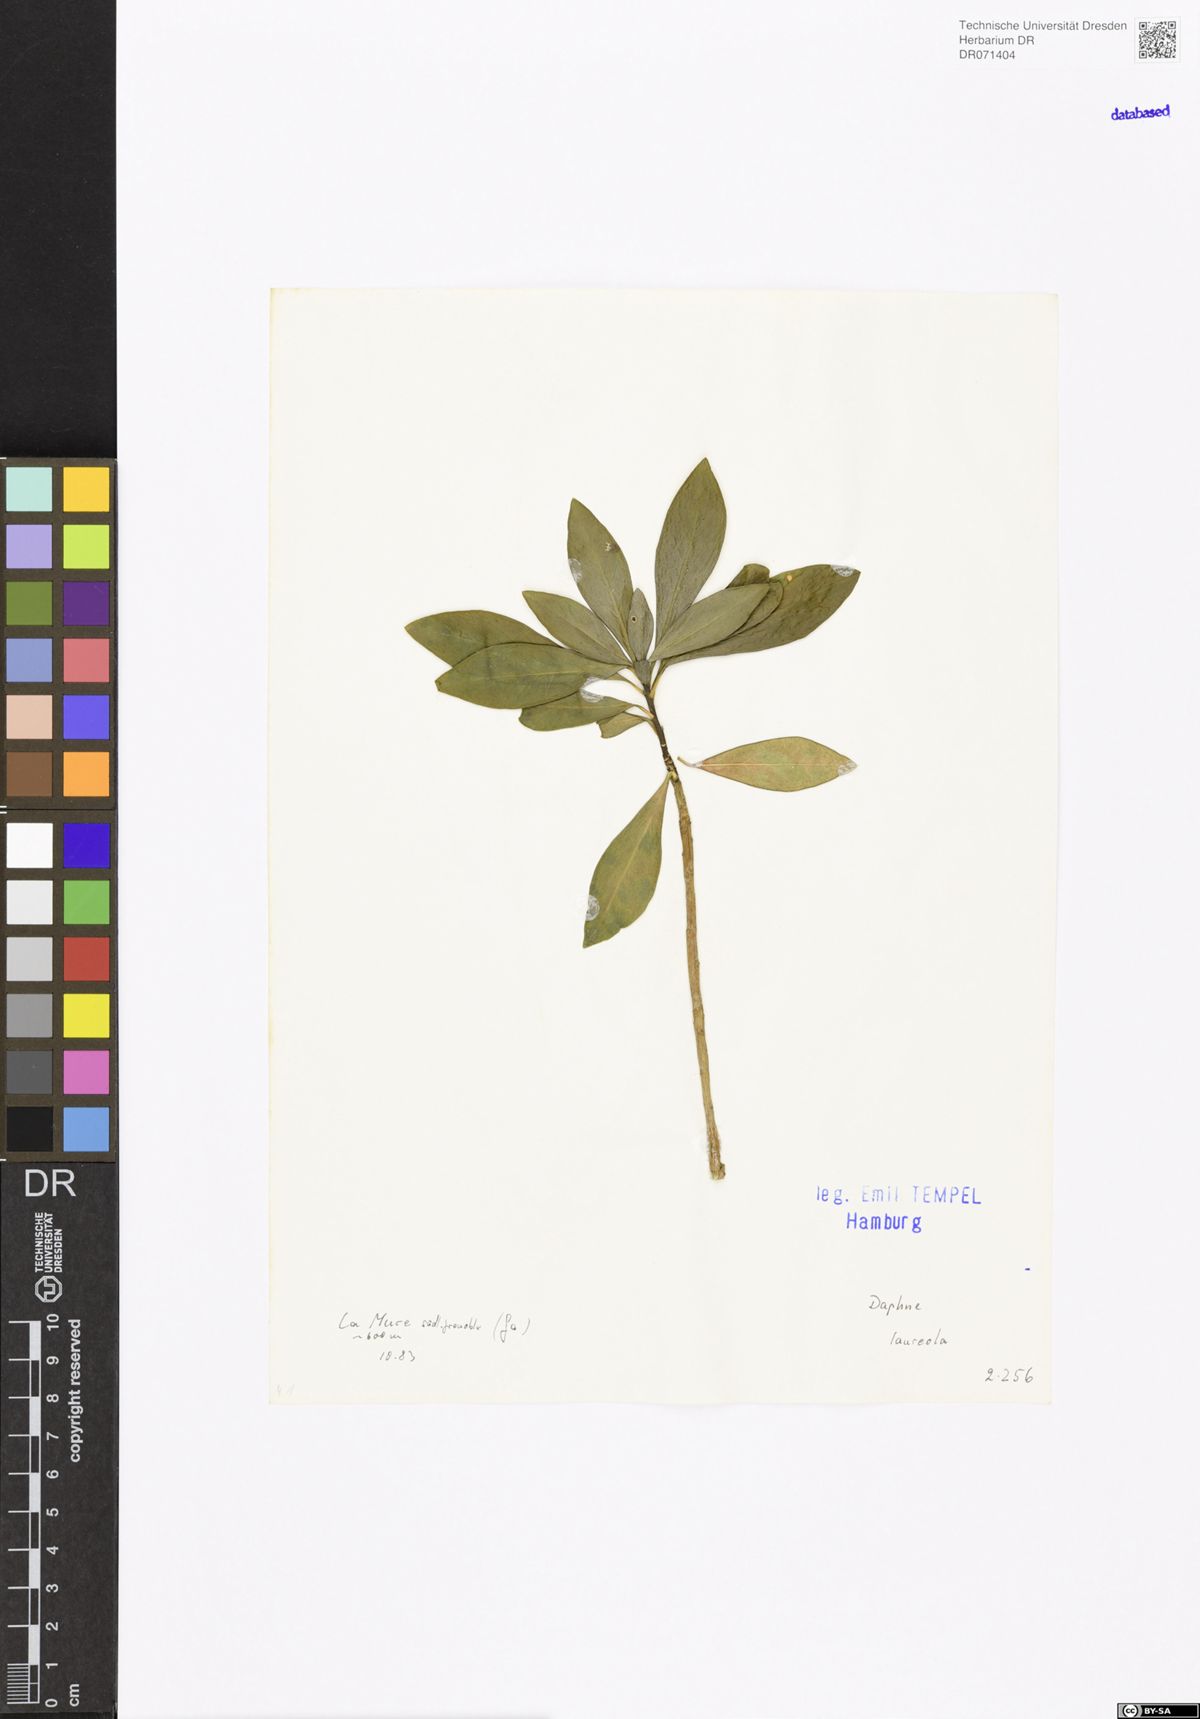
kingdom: Plantae
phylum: Tracheophyta
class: Magnoliopsida
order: Malvales
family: Thymelaeaceae
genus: Daphne
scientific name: Daphne laureola
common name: Spurge-laurel
